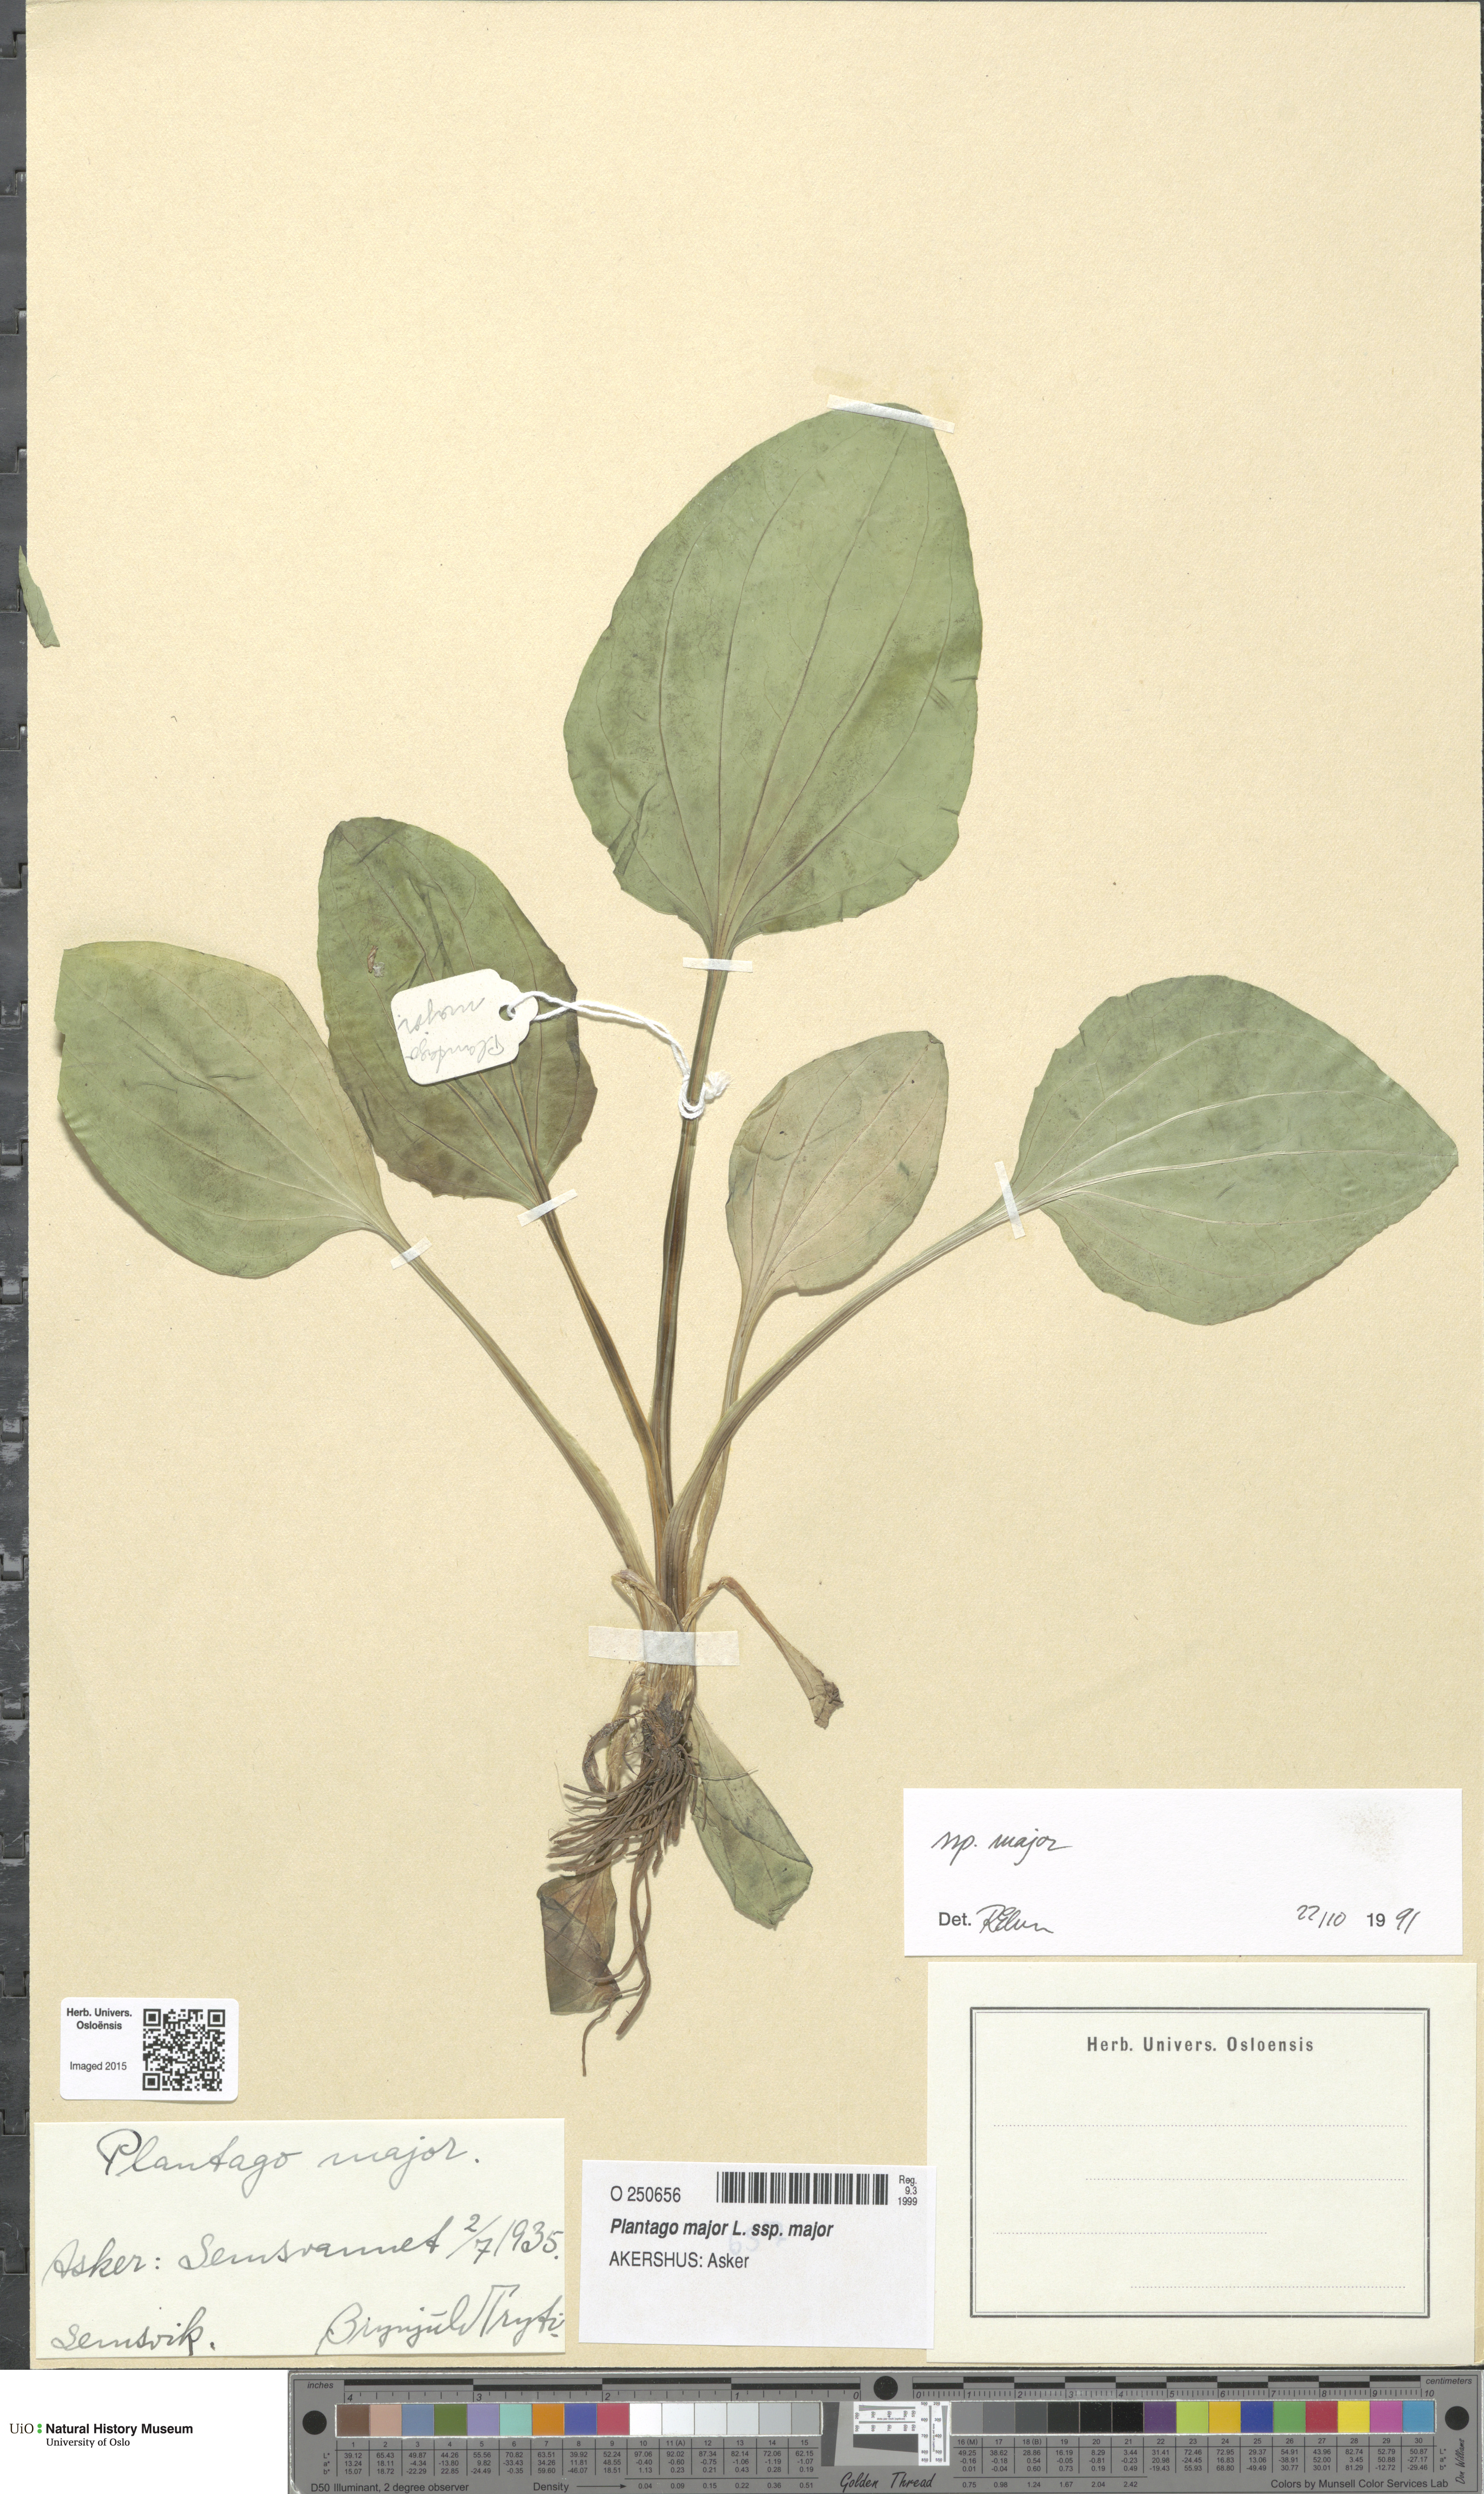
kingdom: Plantae
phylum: Tracheophyta
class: Magnoliopsida
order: Lamiales
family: Plantaginaceae
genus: Plantago
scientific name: Plantago major
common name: Common plantain
